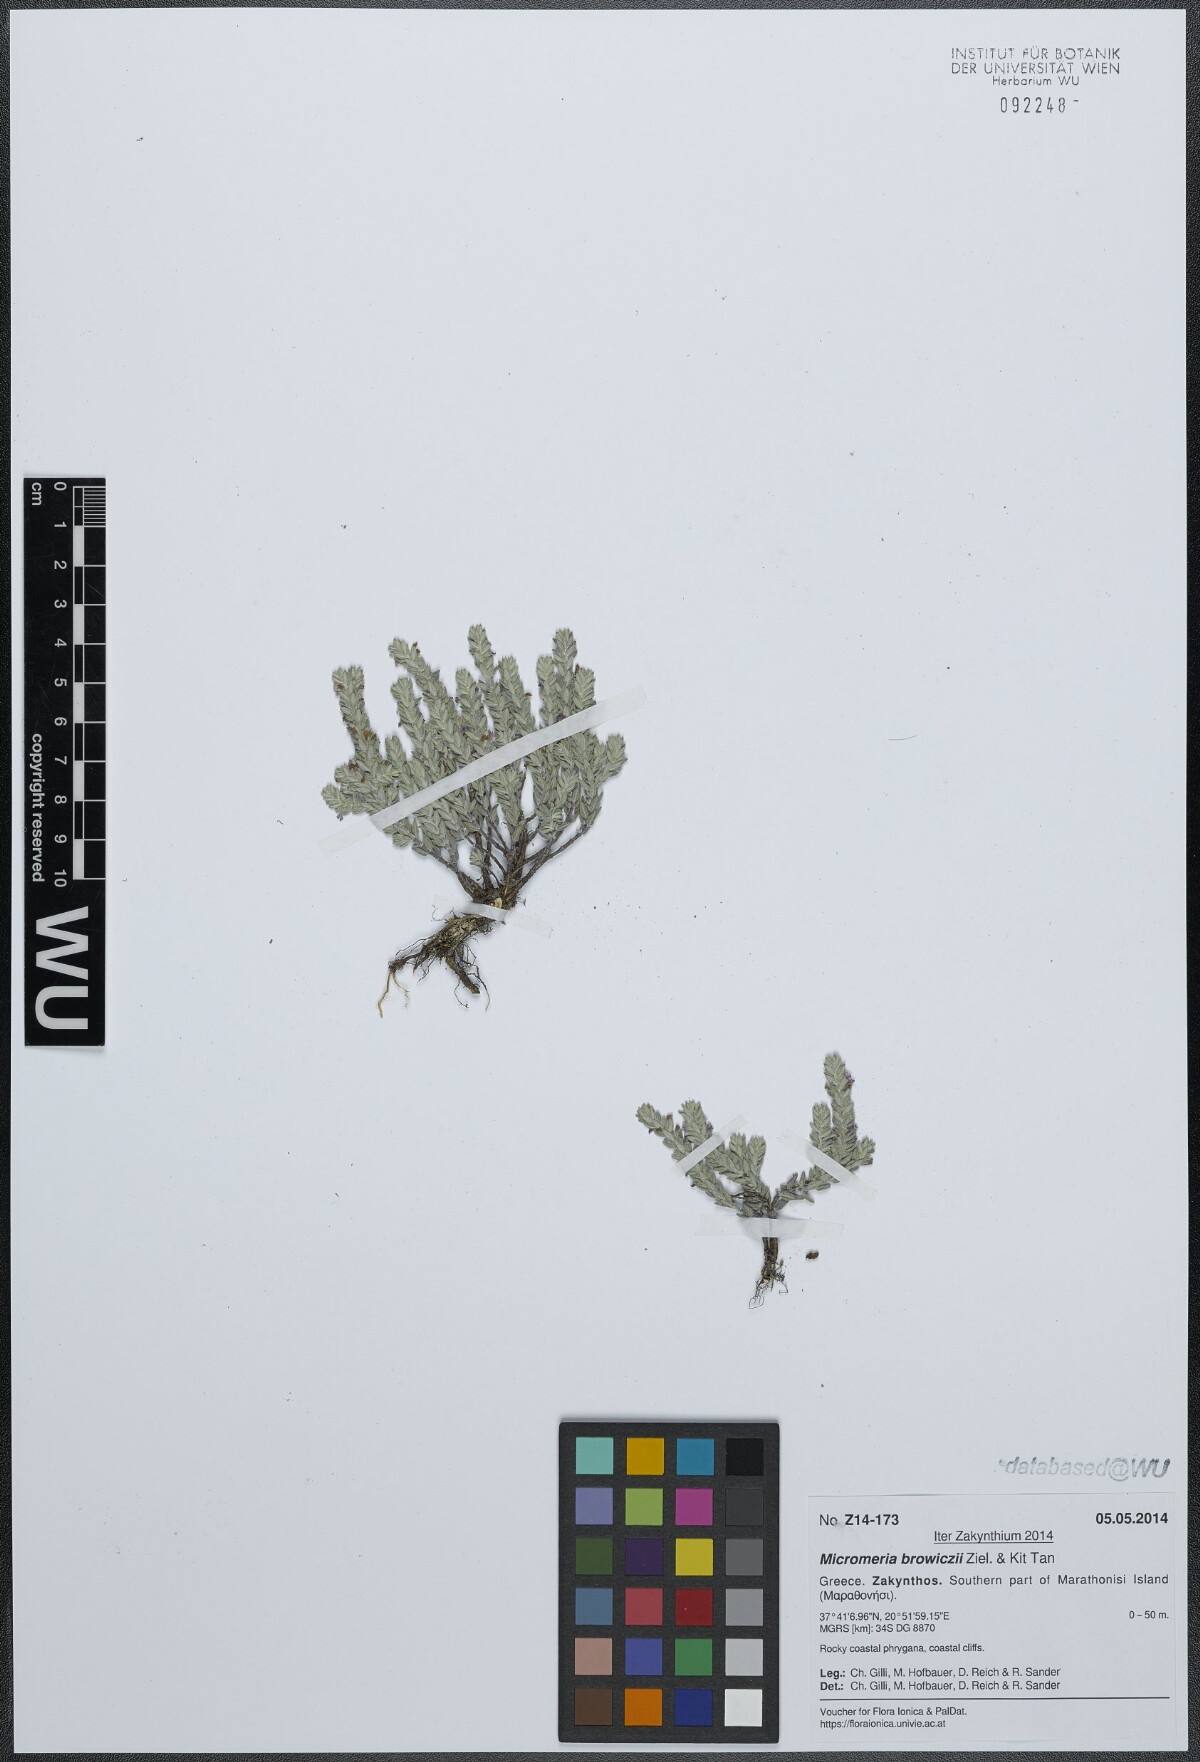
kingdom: Plantae
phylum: Tracheophyta
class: Magnoliopsida
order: Lamiales
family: Lamiaceae
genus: Micromeria
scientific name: Micromeria browiczii
